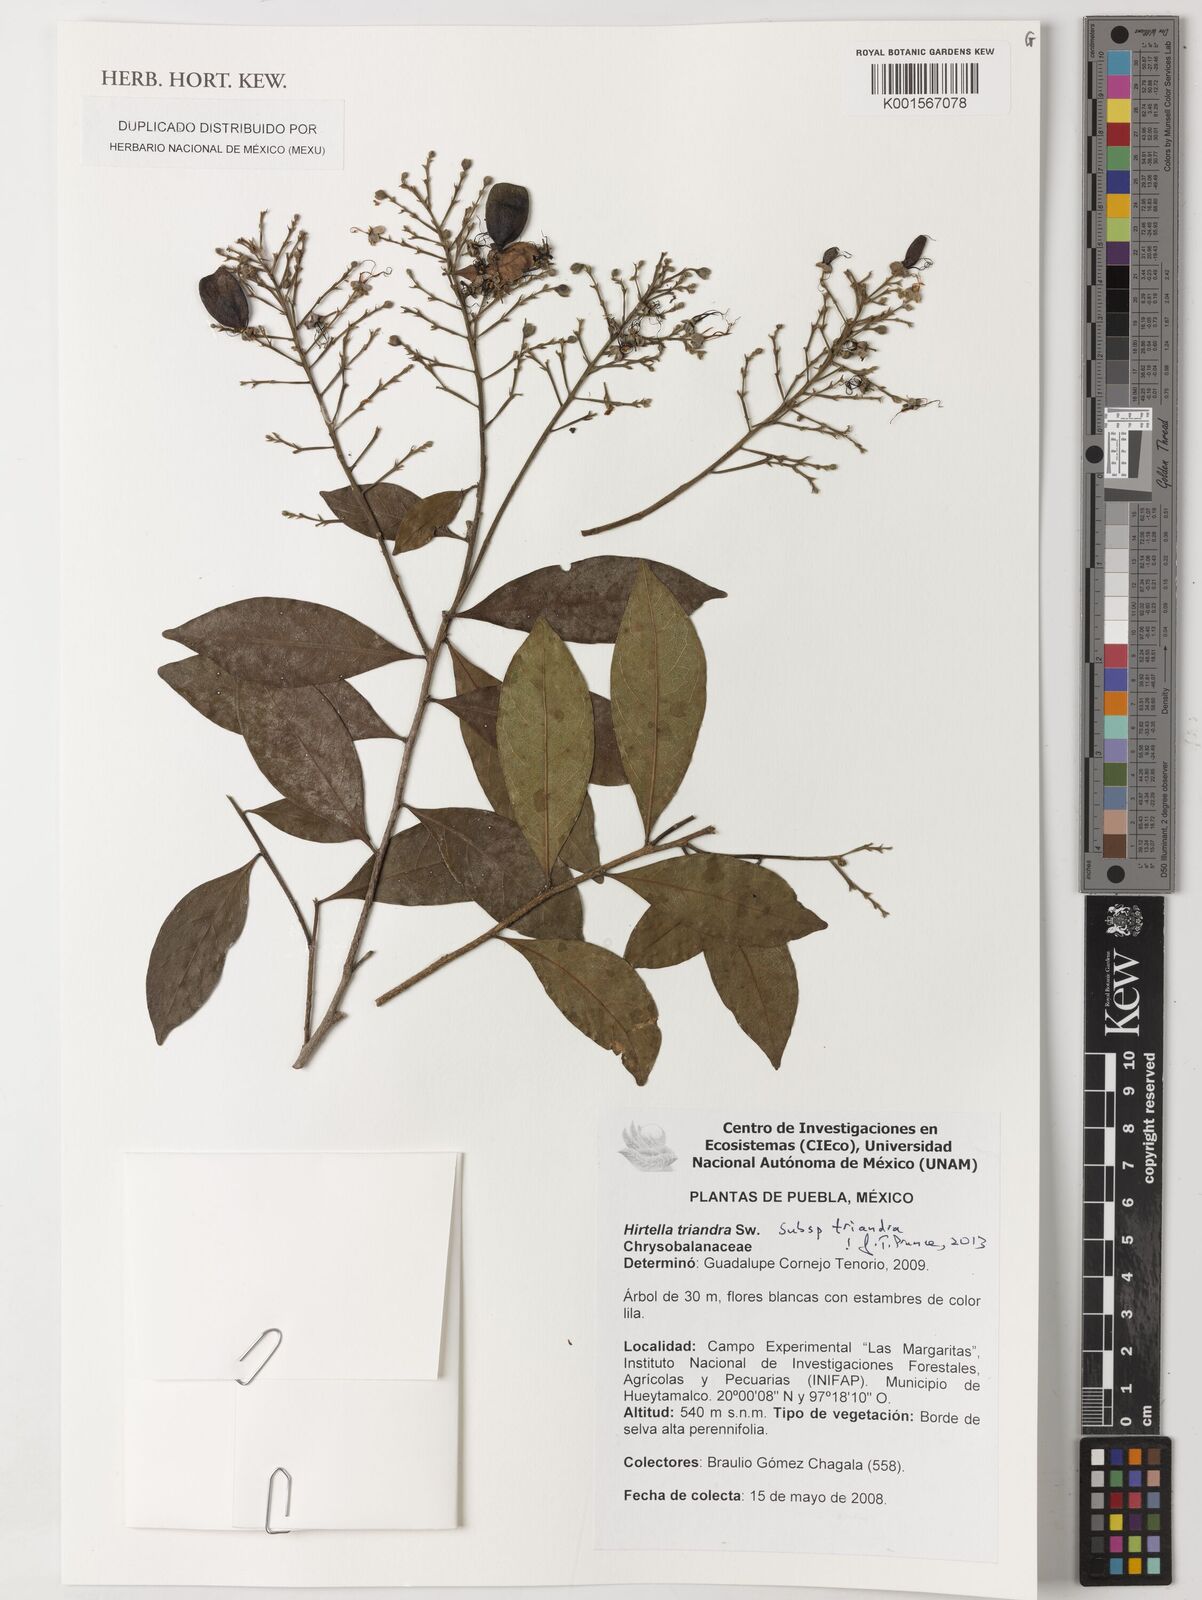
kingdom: Plantae
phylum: Tracheophyta
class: Magnoliopsida
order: Malpighiales
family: Chrysobalanaceae
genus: Hirtella
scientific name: Hirtella triandra
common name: Hairy plum
